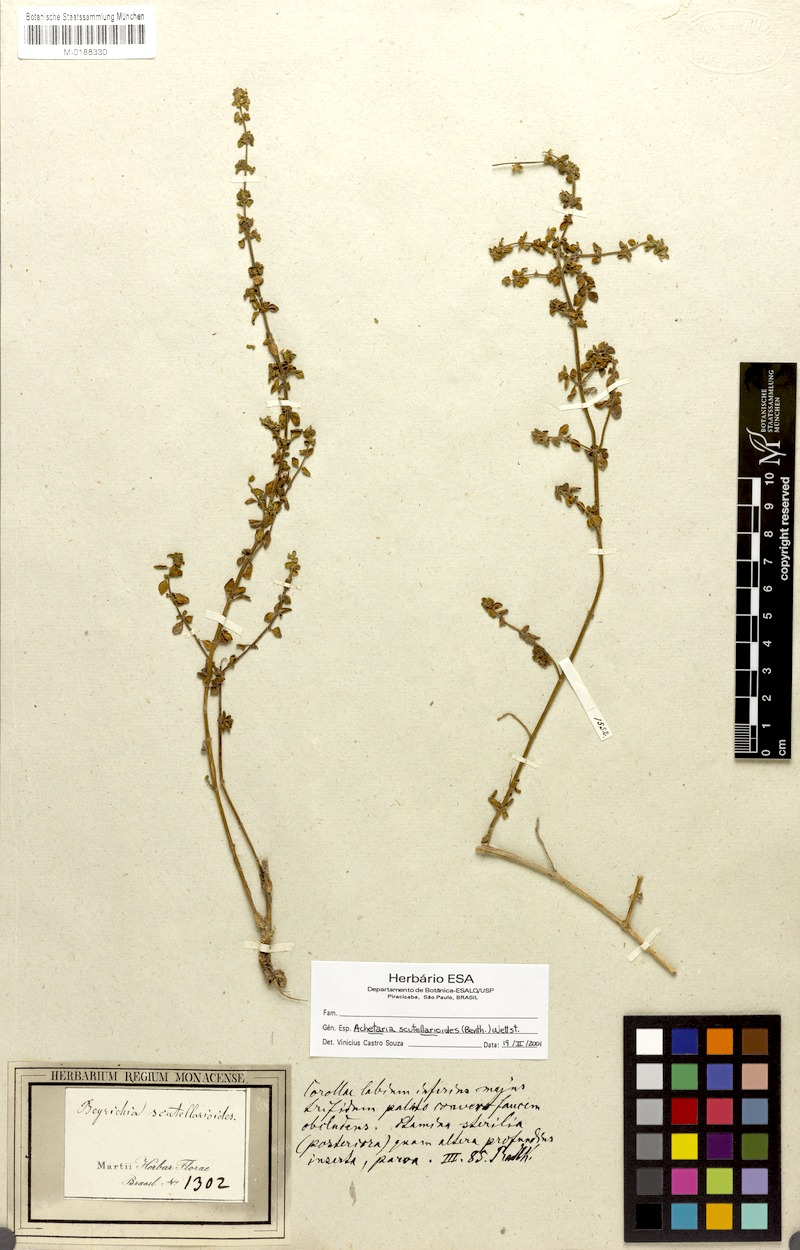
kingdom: Plantae
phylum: Tracheophyta
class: Magnoliopsida
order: Lamiales
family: Plantaginaceae
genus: Matourea
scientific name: Matourea scutellarioides
